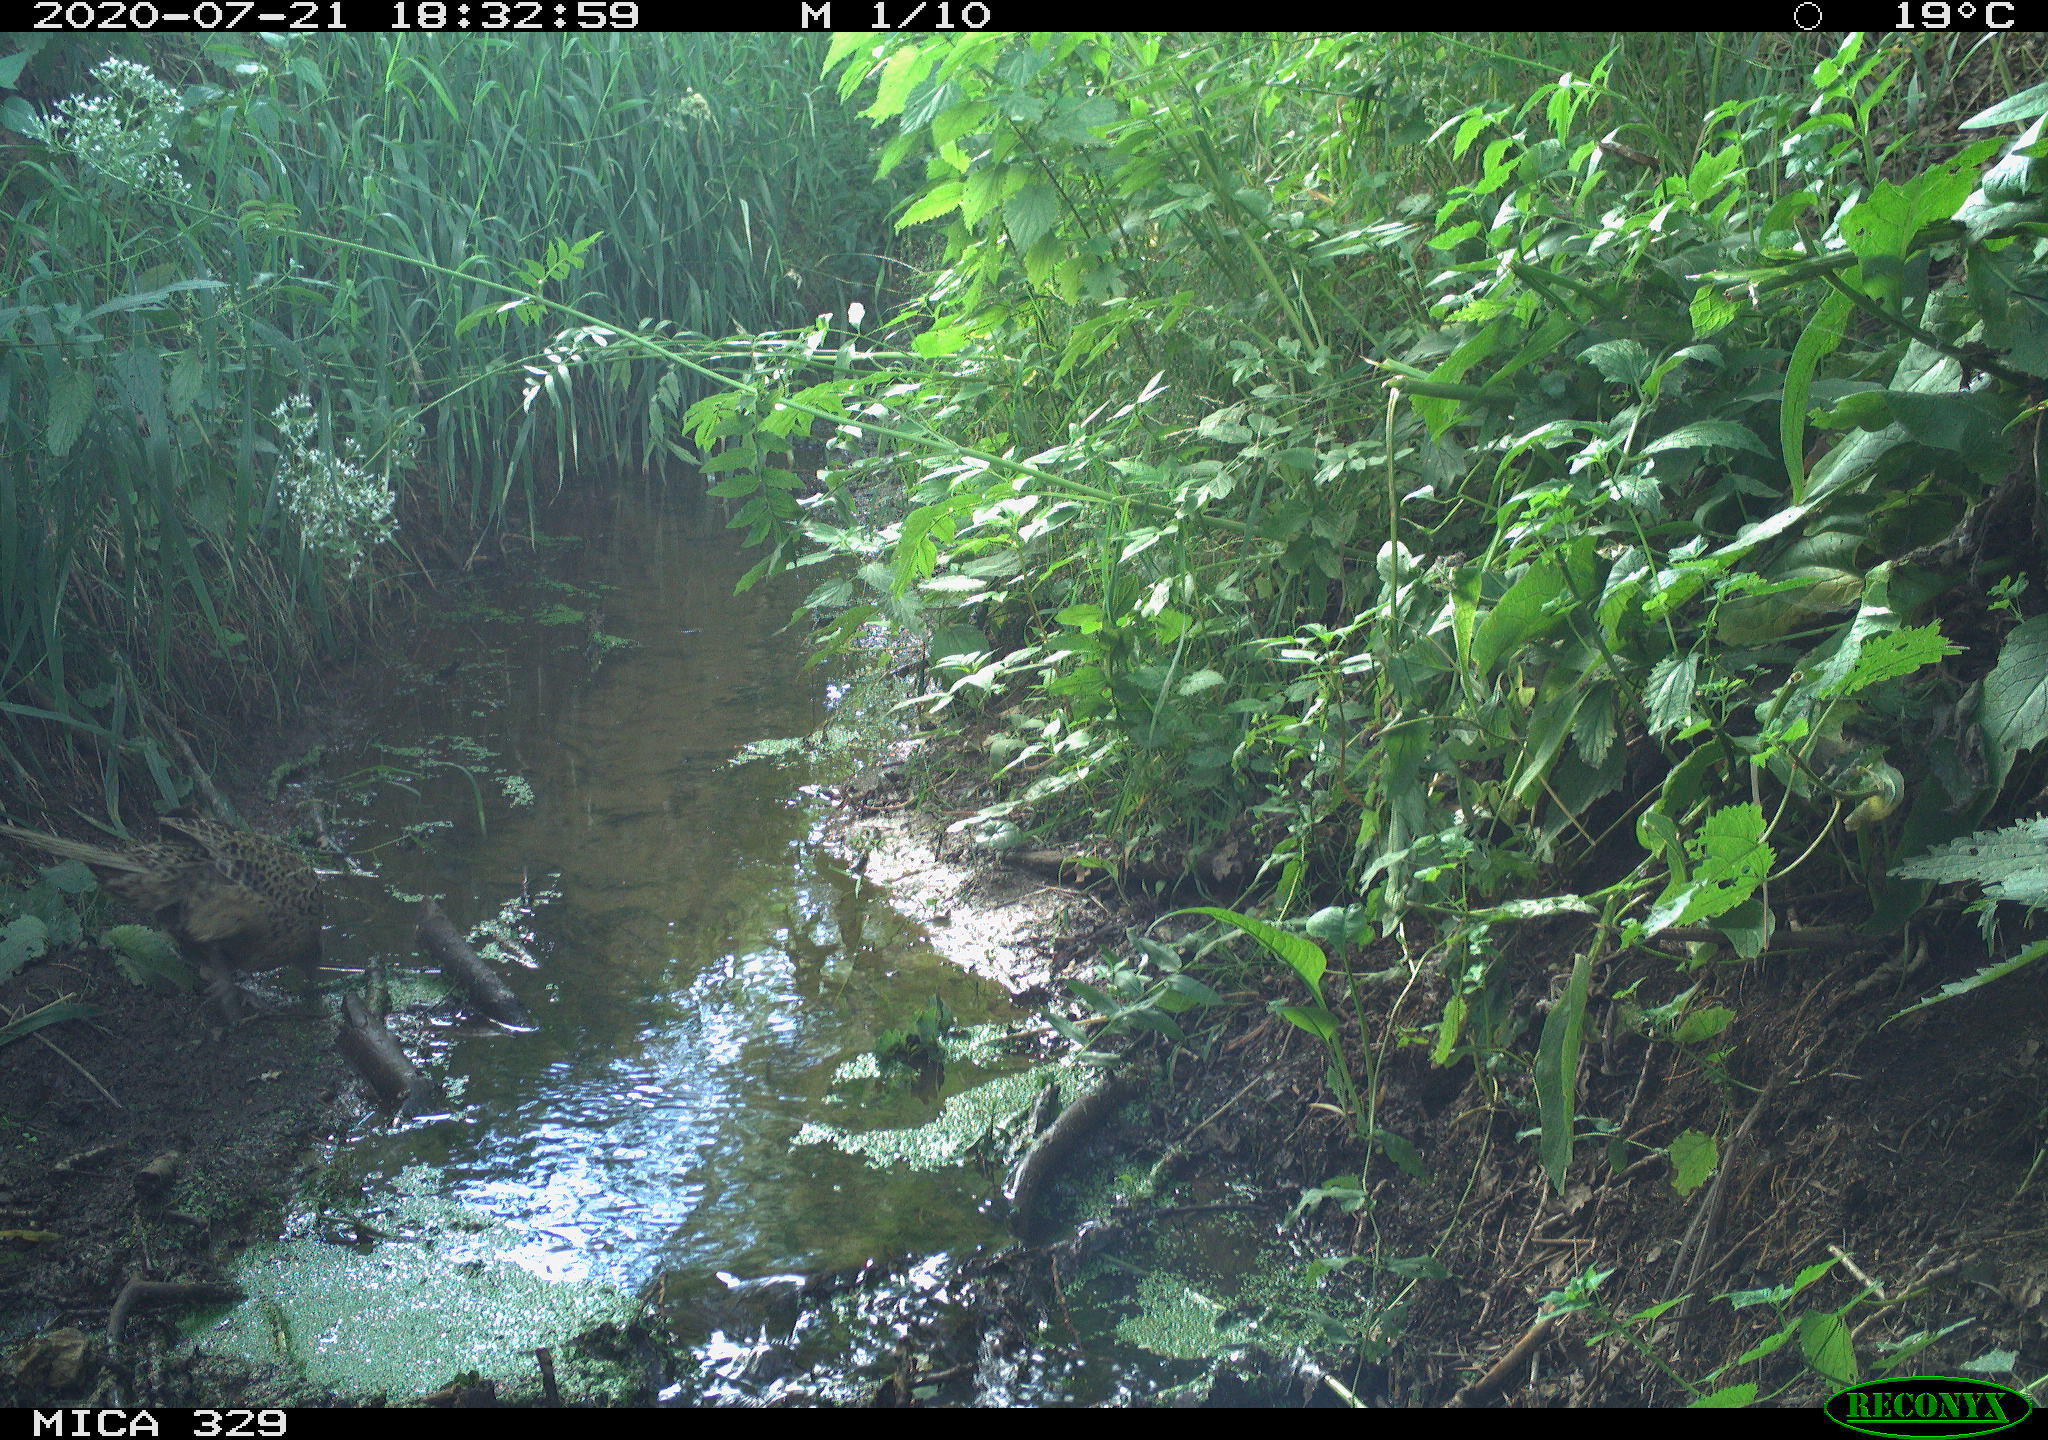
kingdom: Animalia
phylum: Chordata
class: Aves
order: Galliformes
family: Phasianidae
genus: Phasianus
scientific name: Phasianus colchicus
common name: Common pheasant
